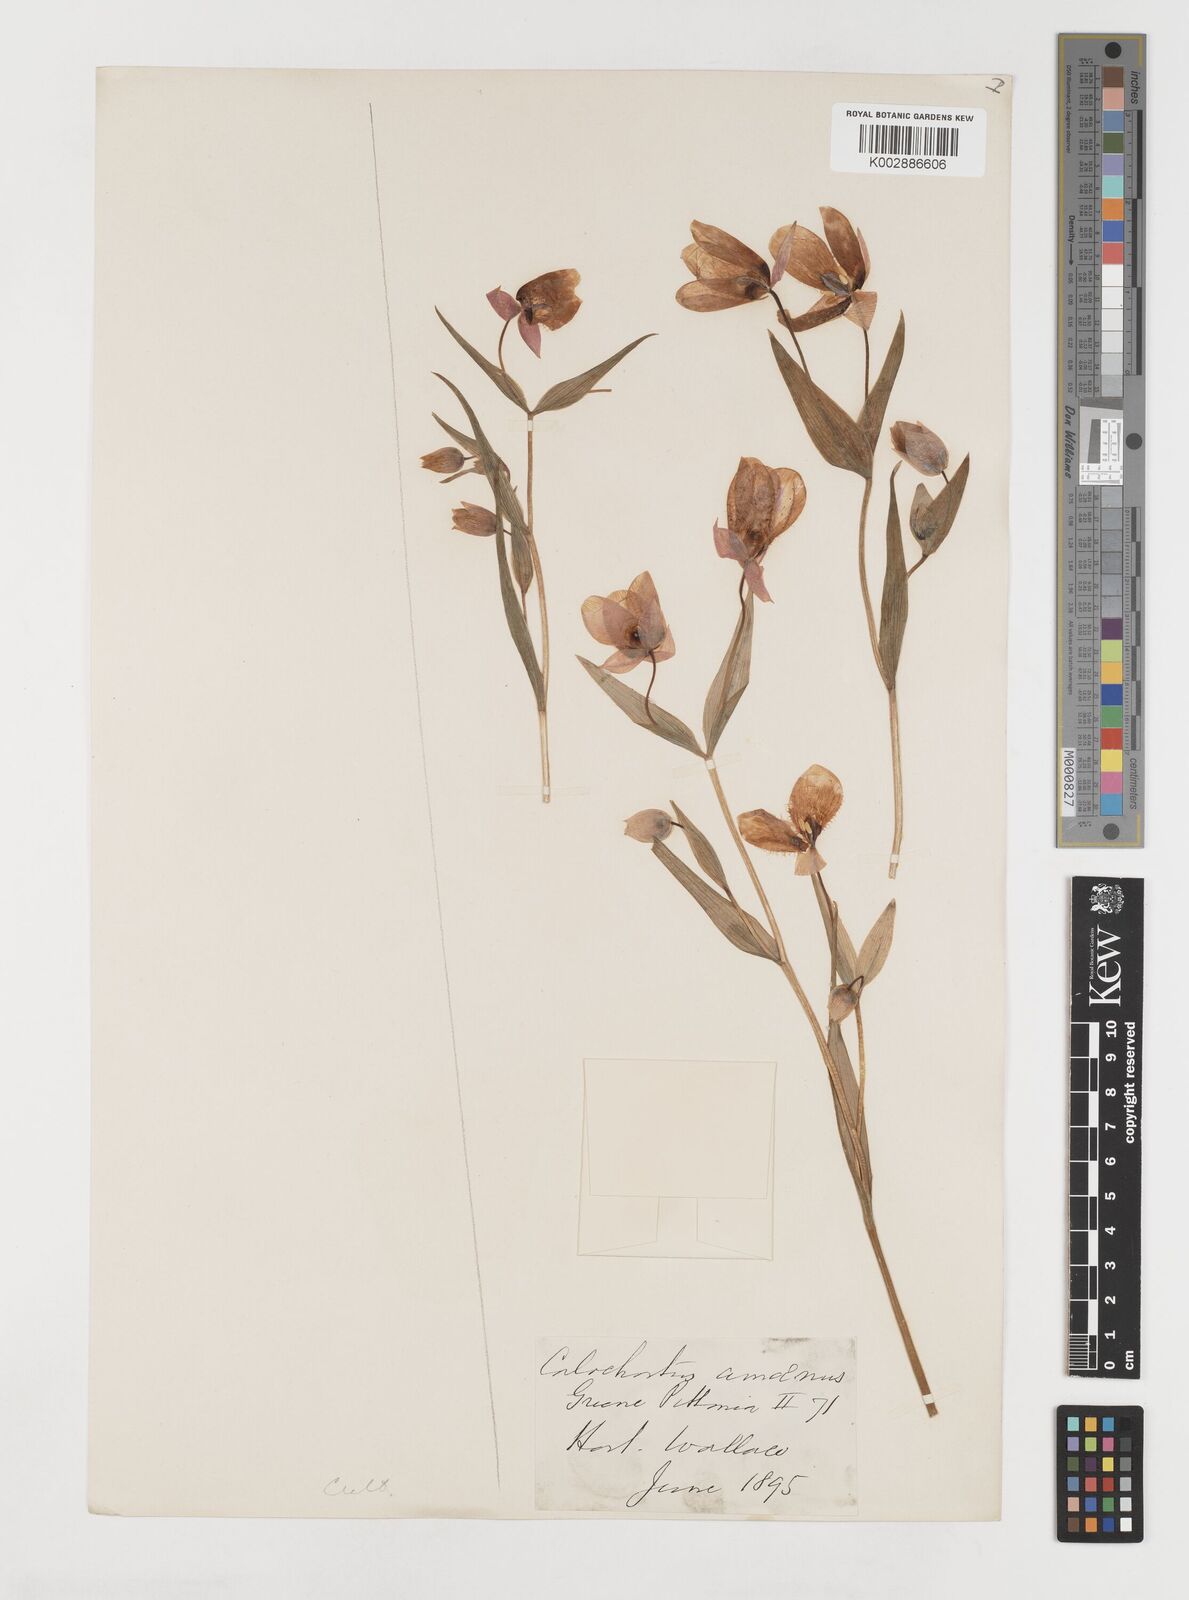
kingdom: Plantae
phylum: Tracheophyta
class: Liliopsida
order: Liliales
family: Liliaceae
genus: Calochortus
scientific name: Calochortus amoenus
